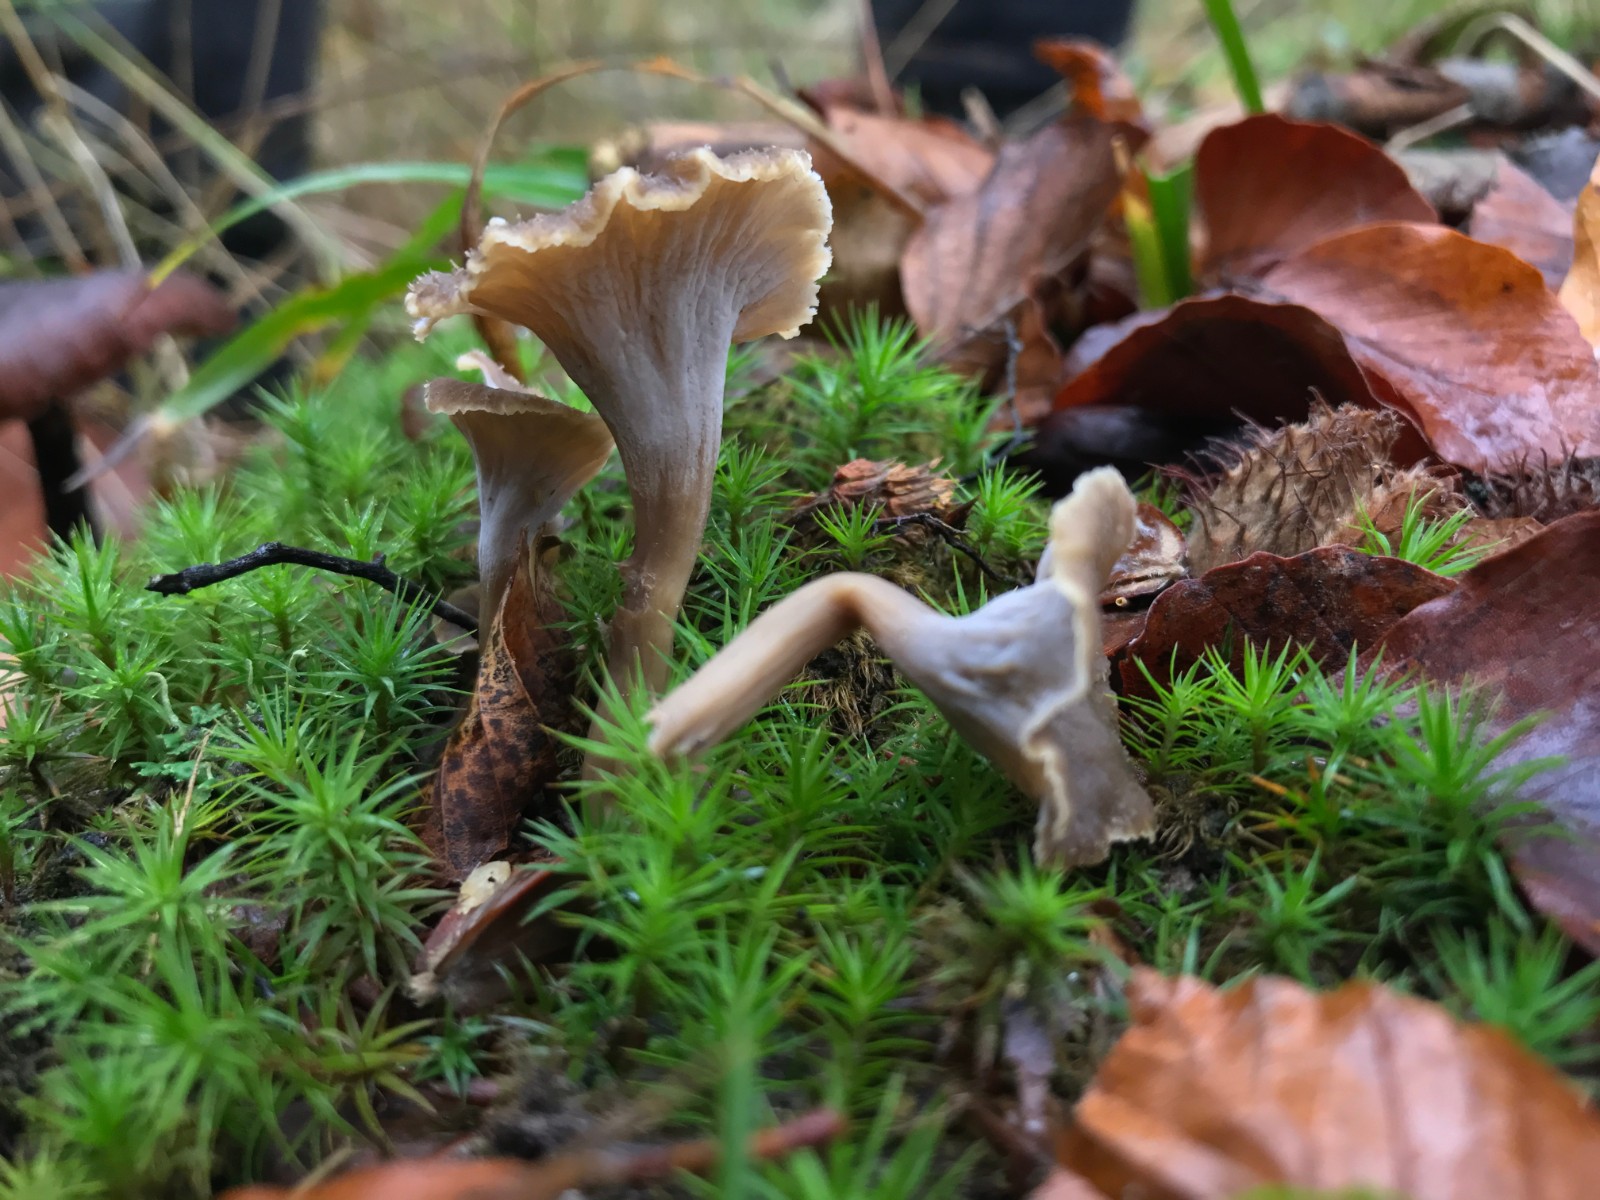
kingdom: Fungi
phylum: Basidiomycota
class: Agaricomycetes
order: Cantharellales
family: Hydnaceae
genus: Craterellus
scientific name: Craterellus undulatus
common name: liden kantarel
